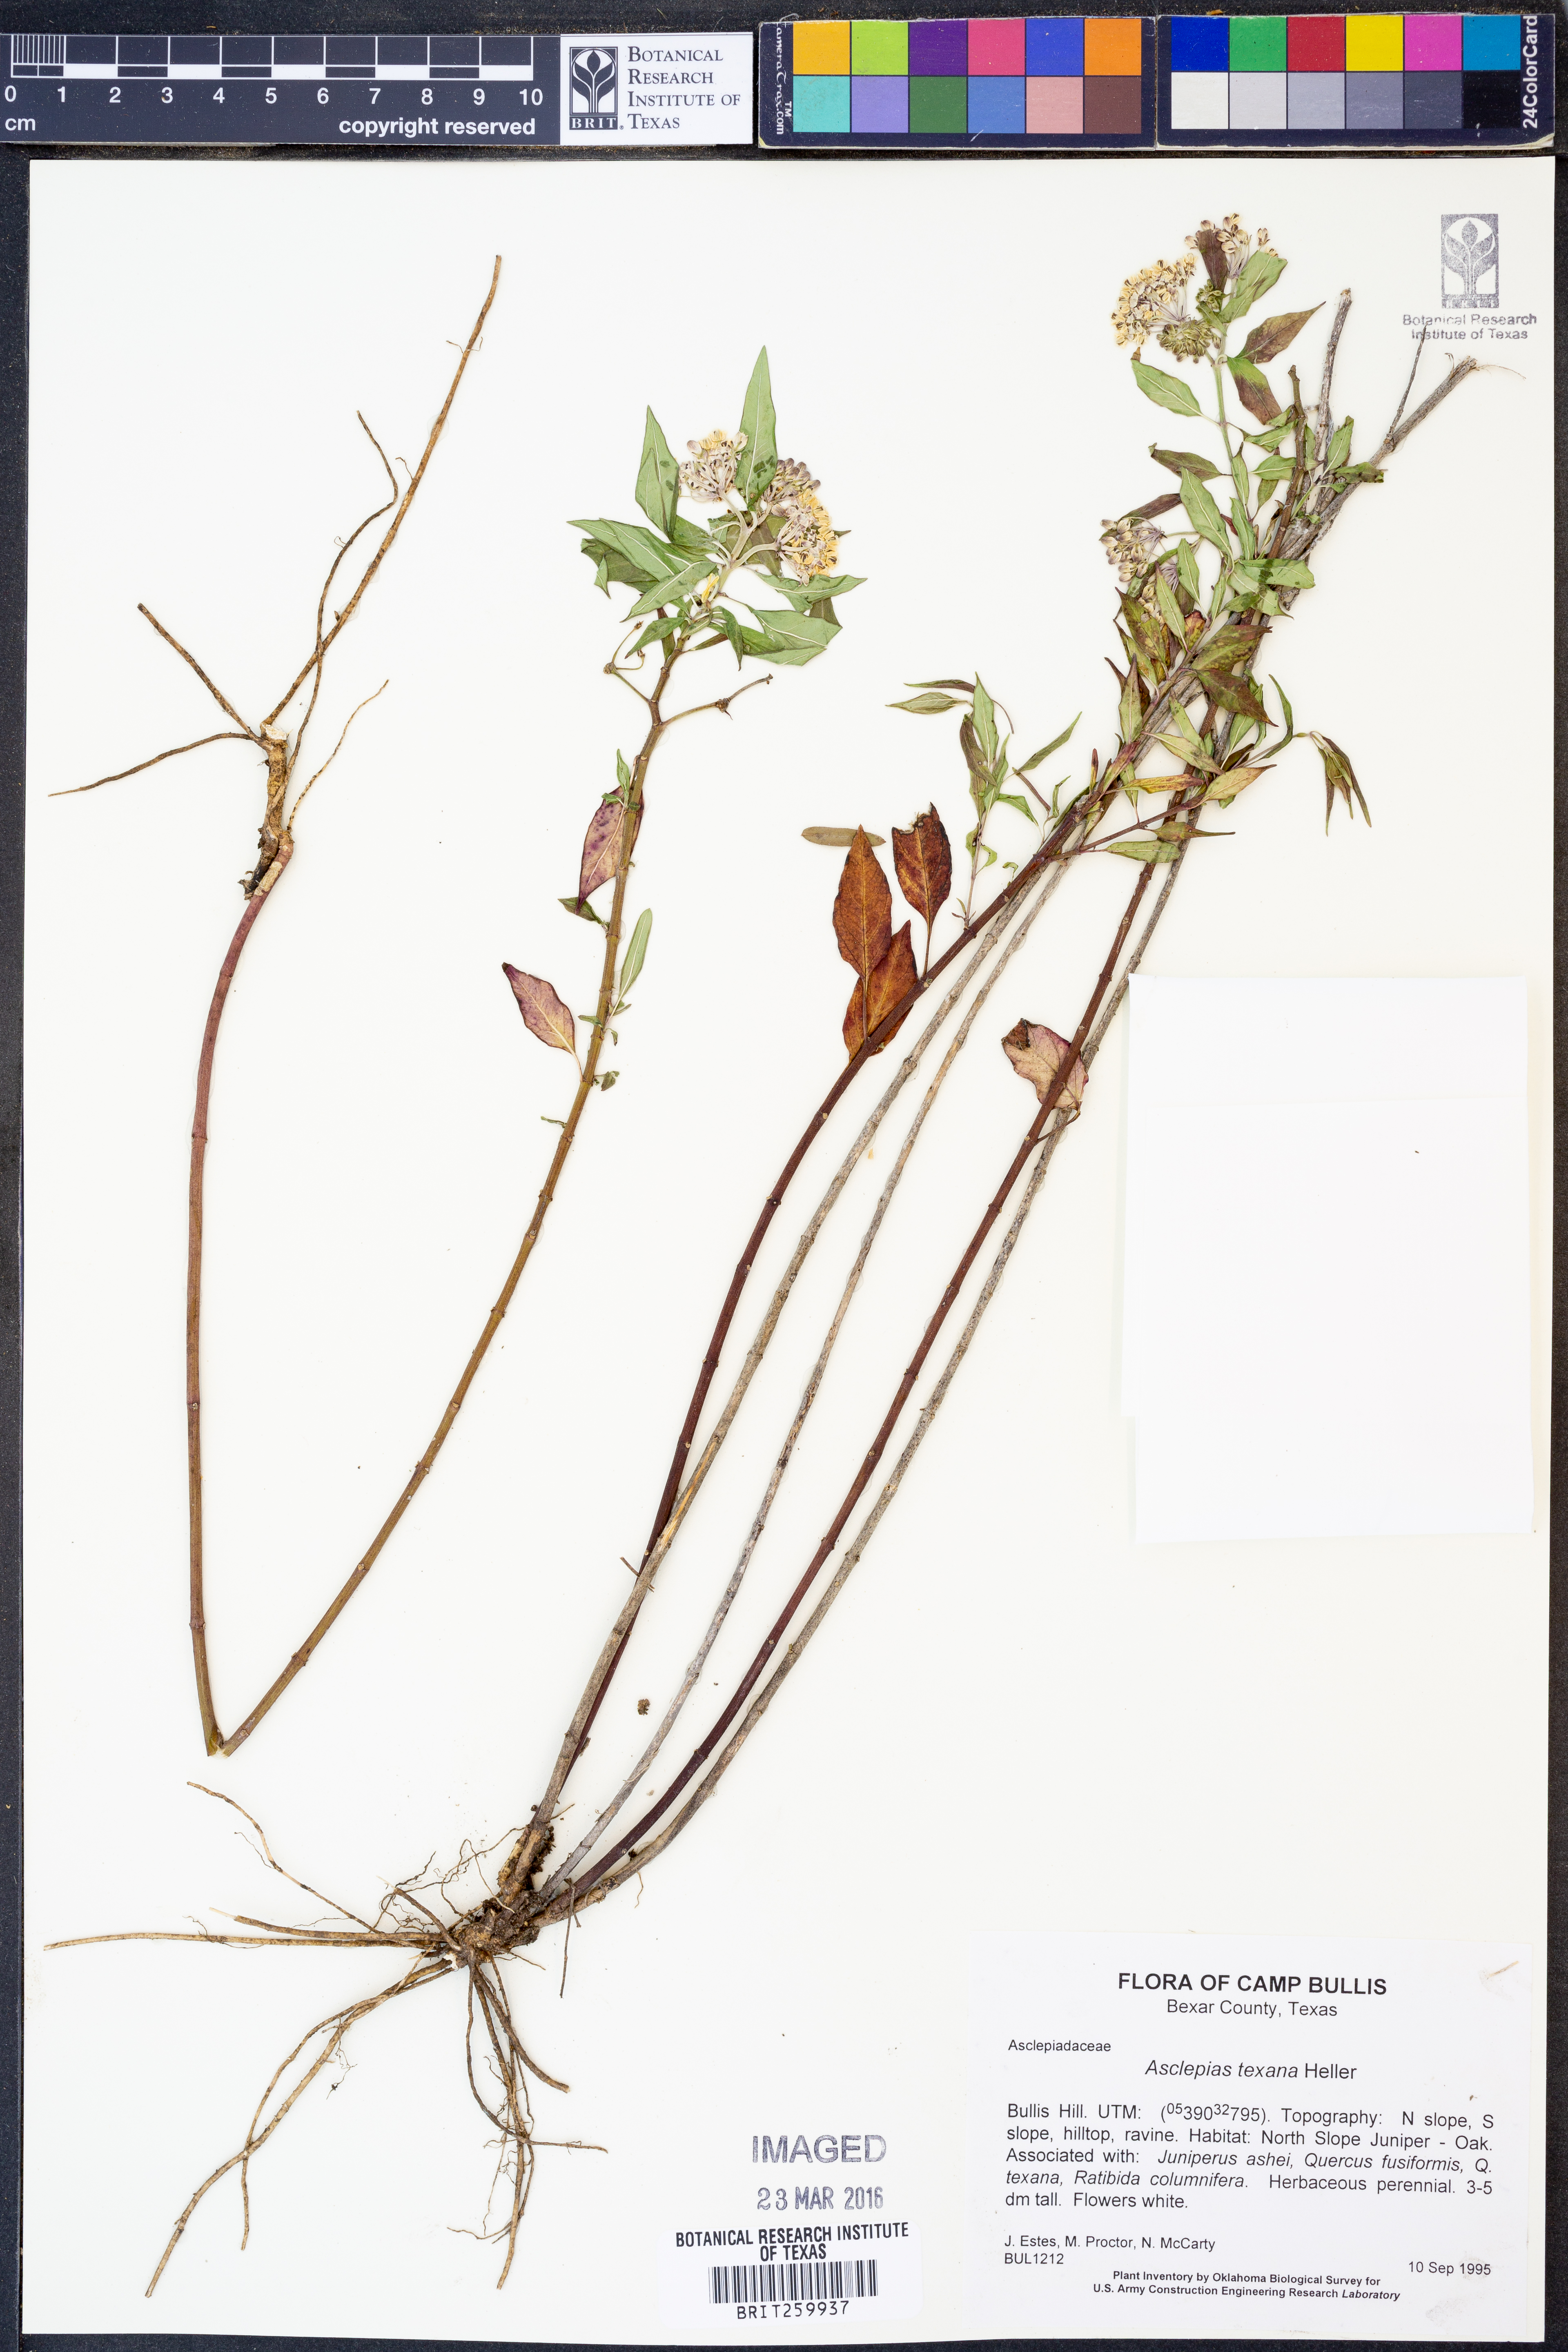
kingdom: Plantae
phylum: Tracheophyta
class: Magnoliopsida
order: Gentianales
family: Apocynaceae
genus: Asclepias
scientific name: Asclepias texana
